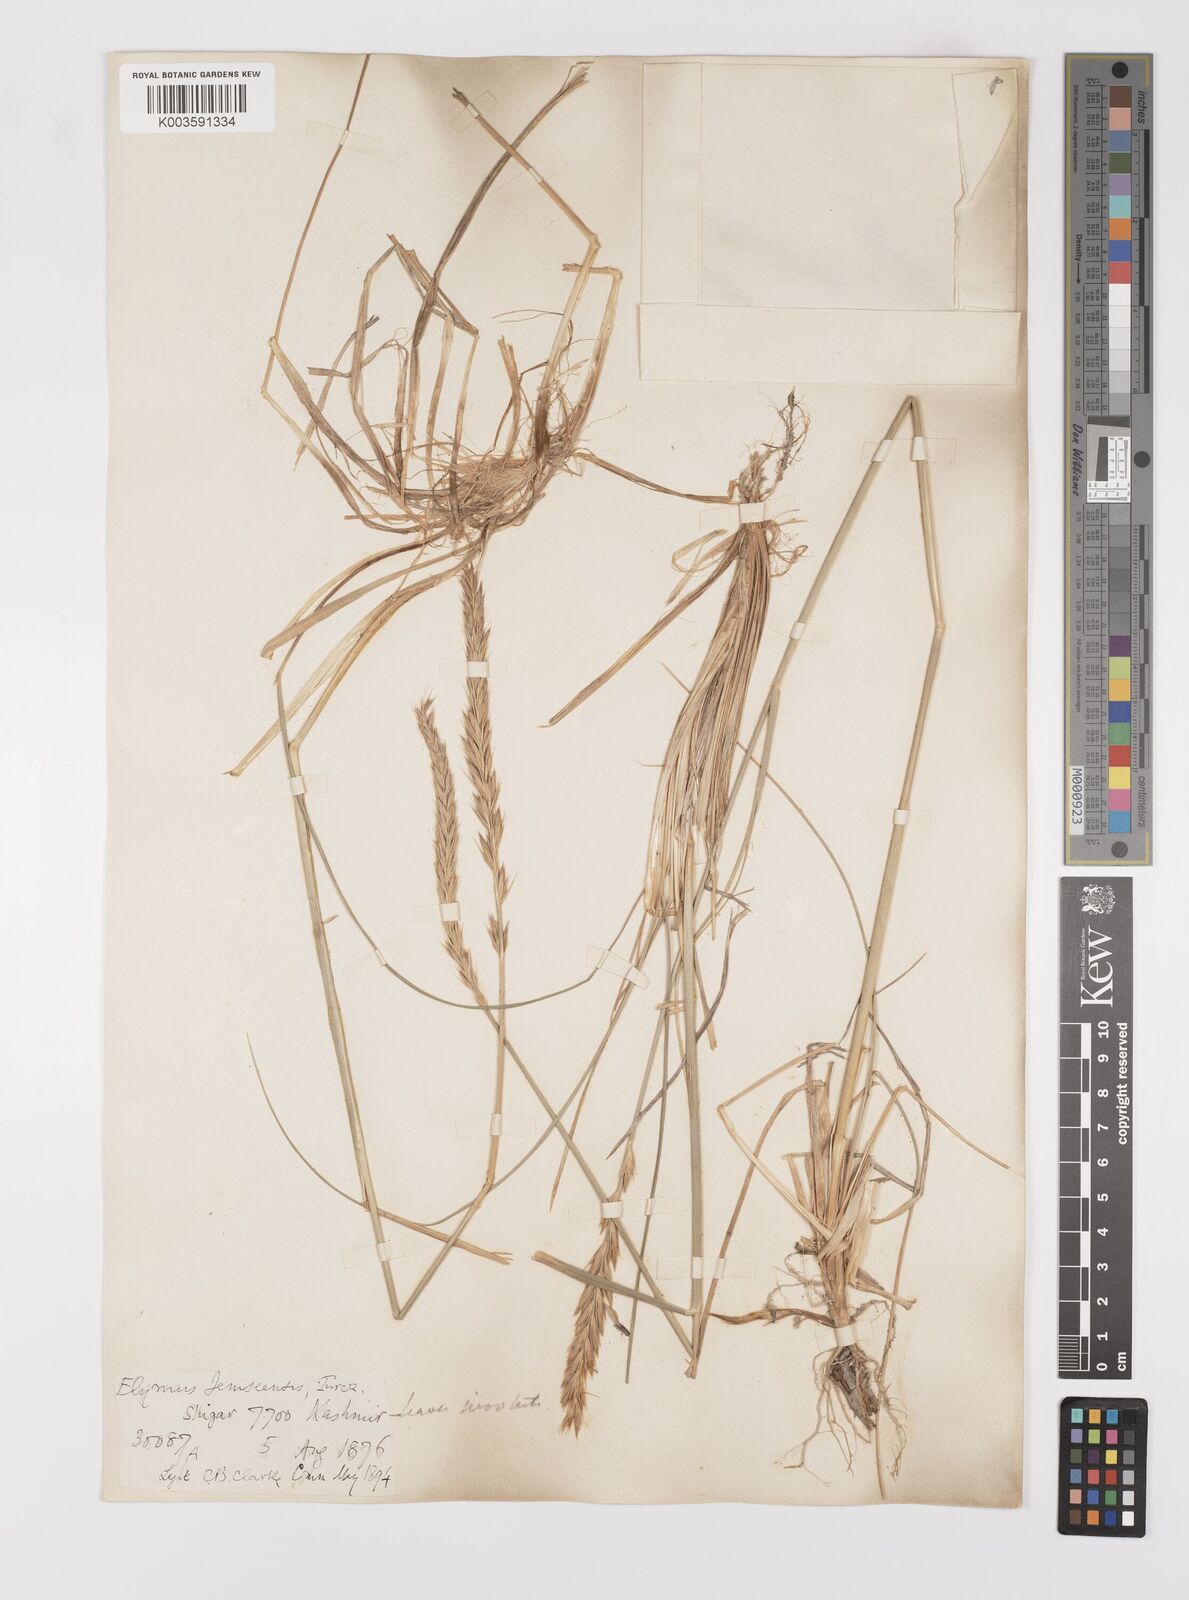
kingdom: Plantae
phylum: Tracheophyta
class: Liliopsida
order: Poales
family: Poaceae
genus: Leymus
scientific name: Leymus secalinus
